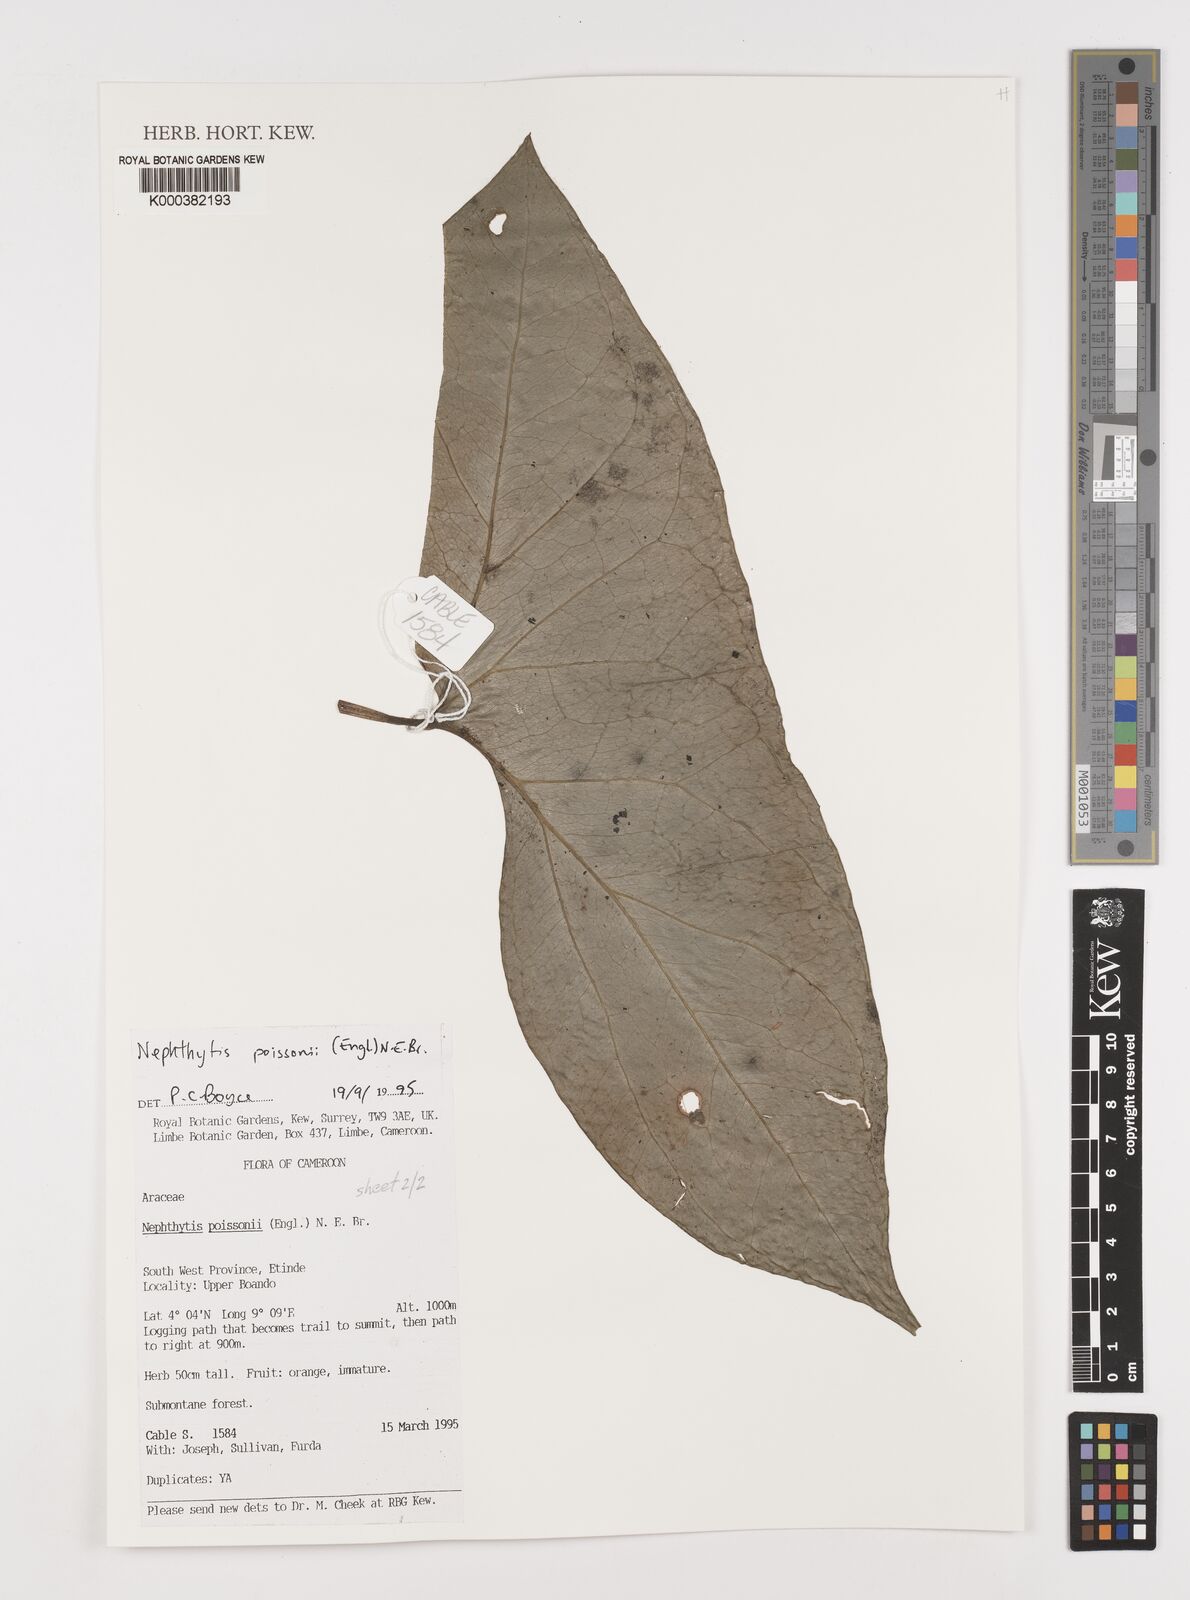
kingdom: Plantae
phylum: Tracheophyta
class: Liliopsida
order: Alismatales
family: Araceae
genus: Nephthytis
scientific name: Nephthytis poissonii
